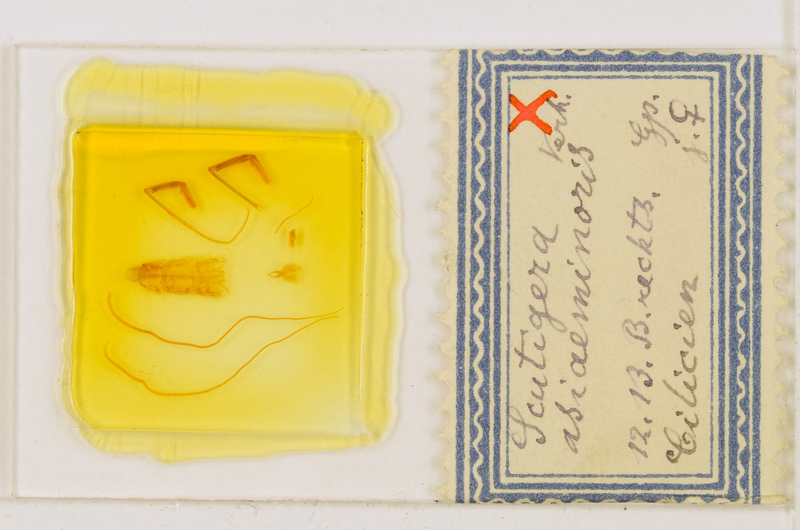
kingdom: Animalia
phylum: Arthropoda
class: Chilopoda
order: Scutigeromorpha
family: Scutigeridae
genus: Scutigera
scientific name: Scutigera coleoptrata
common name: House centipede
